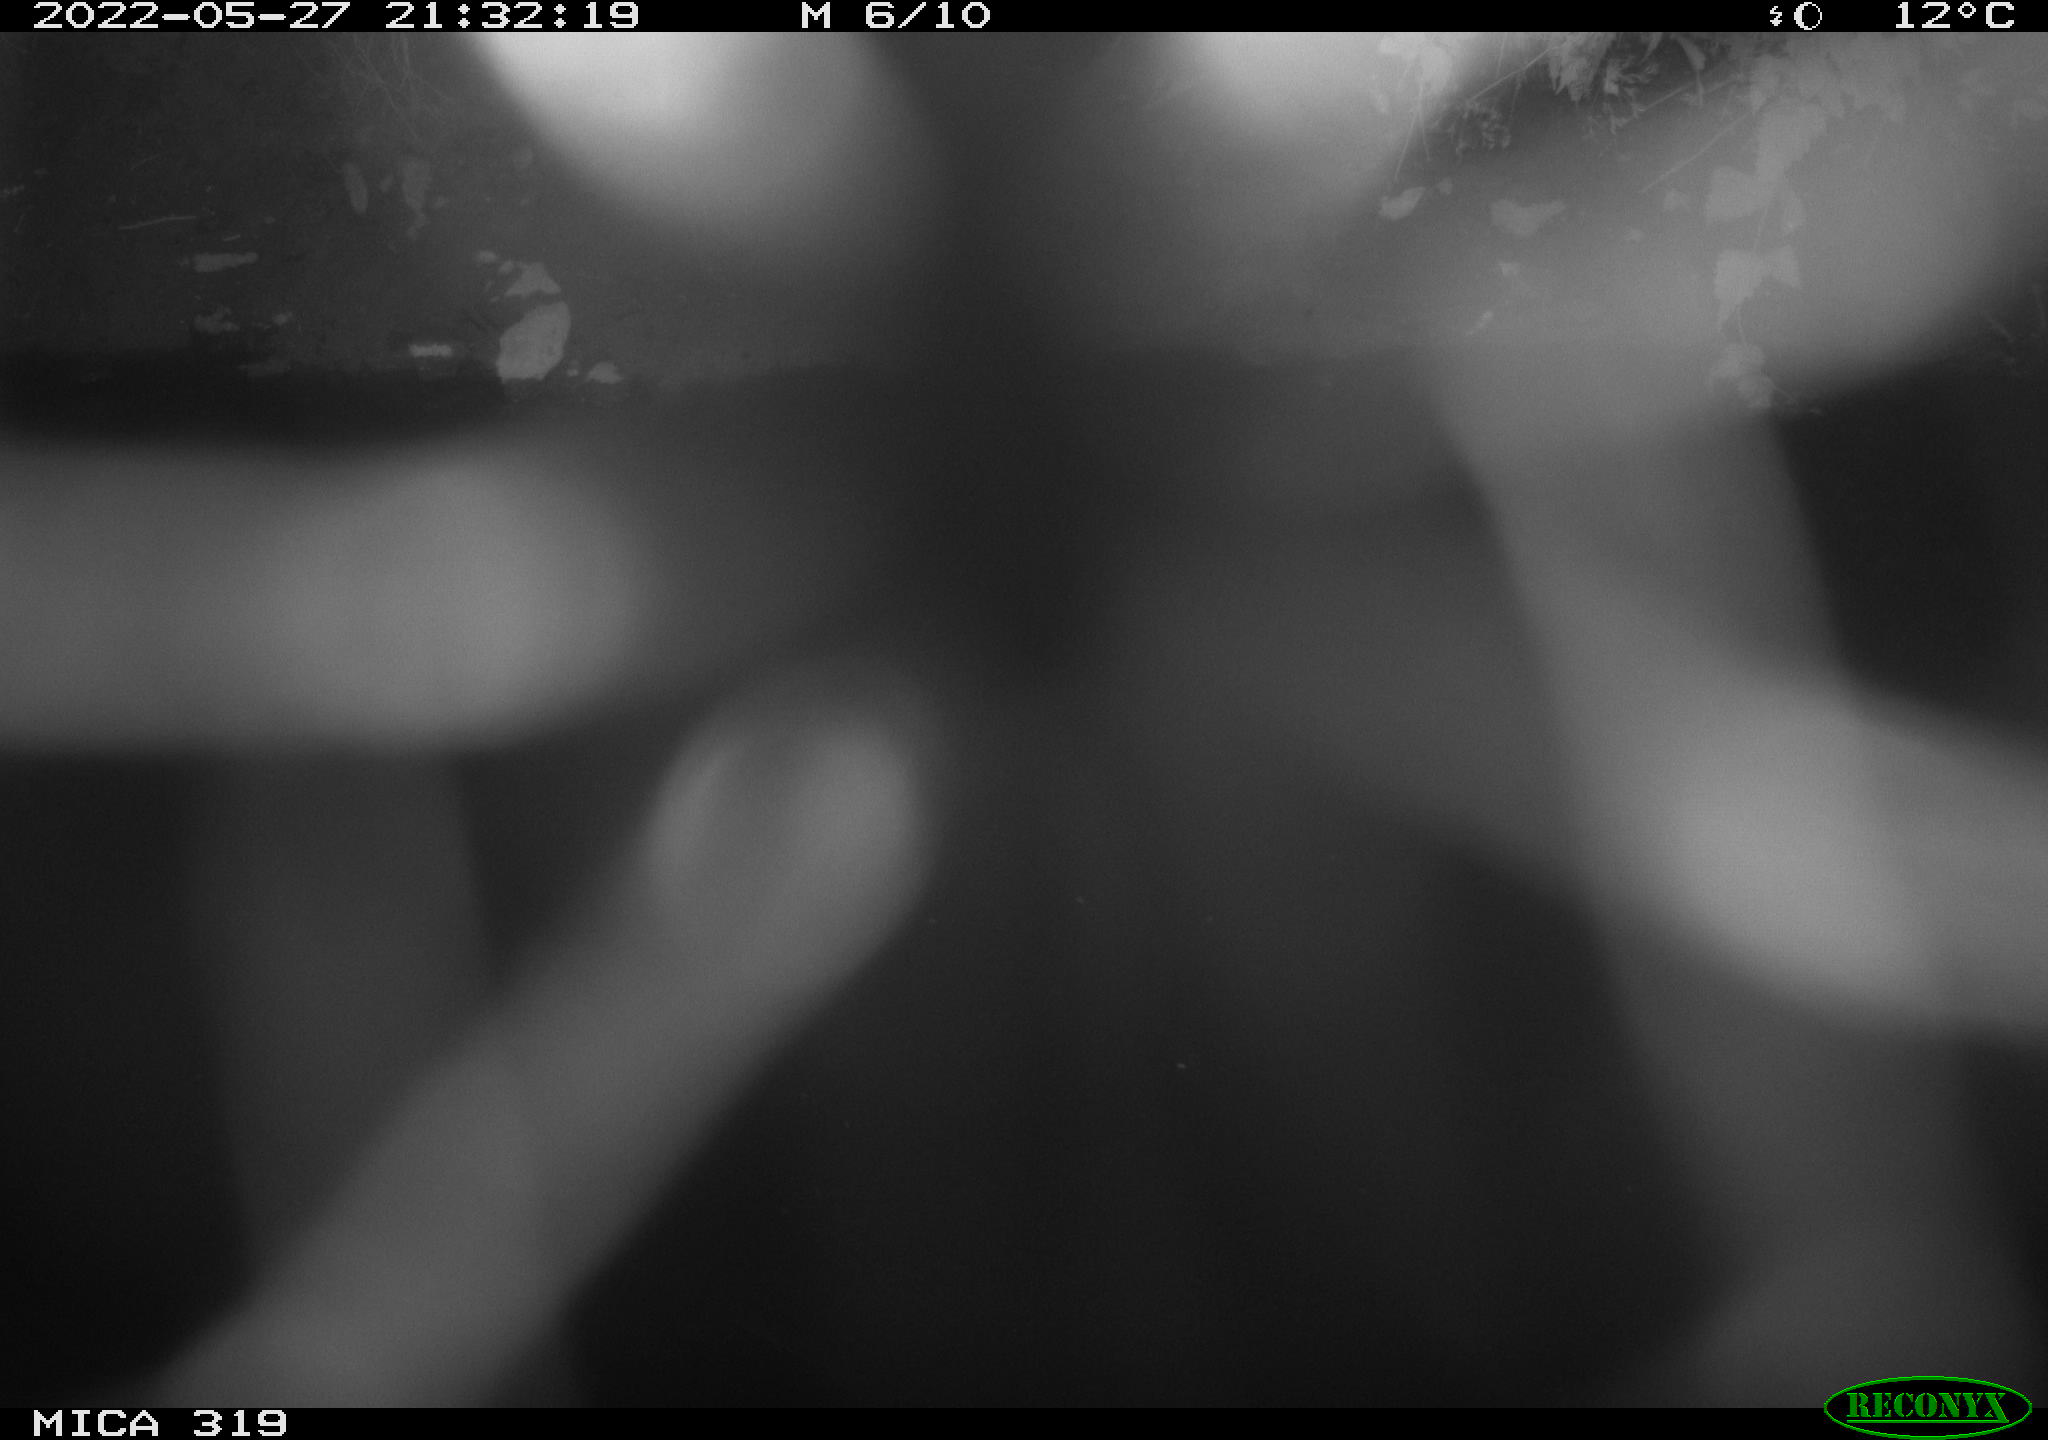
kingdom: Animalia
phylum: Chordata
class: Aves
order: Anseriformes
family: Anatidae
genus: Anas
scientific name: Anas
